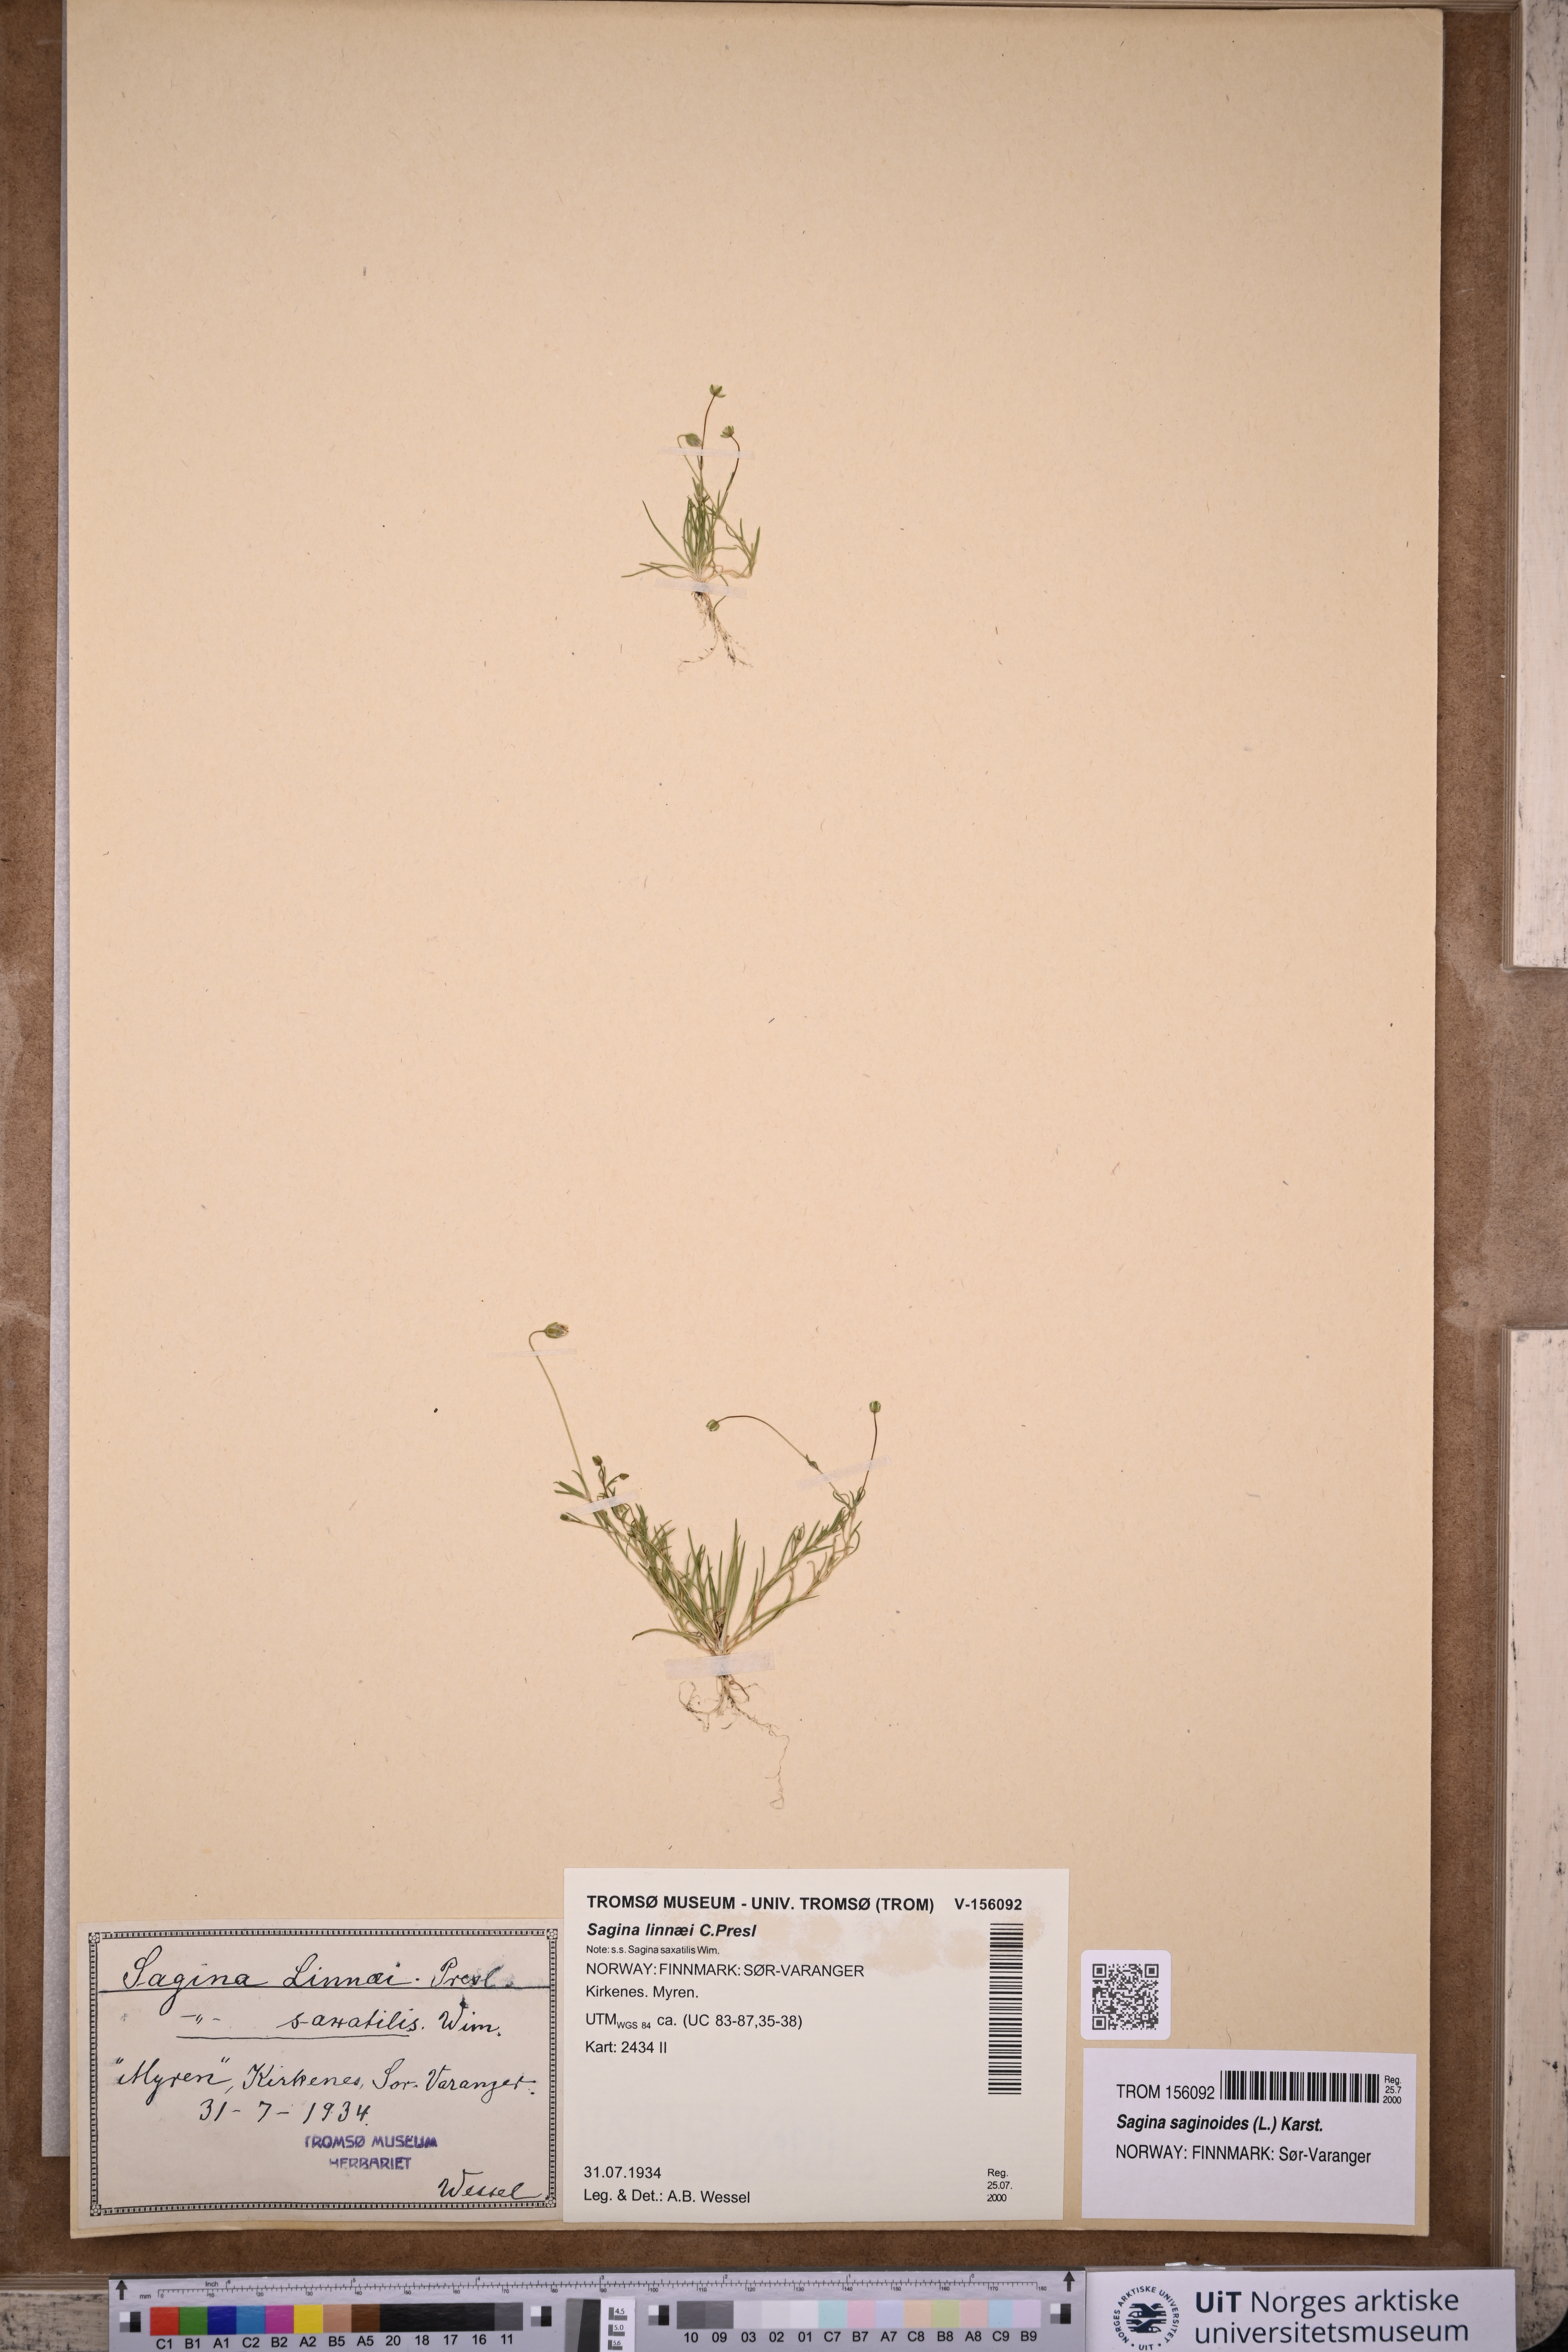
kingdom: Plantae
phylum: Tracheophyta
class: Magnoliopsida
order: Caryophyllales
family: Caryophyllaceae
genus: Sagina
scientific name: Sagina saginoides
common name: Alpine pearlwort
